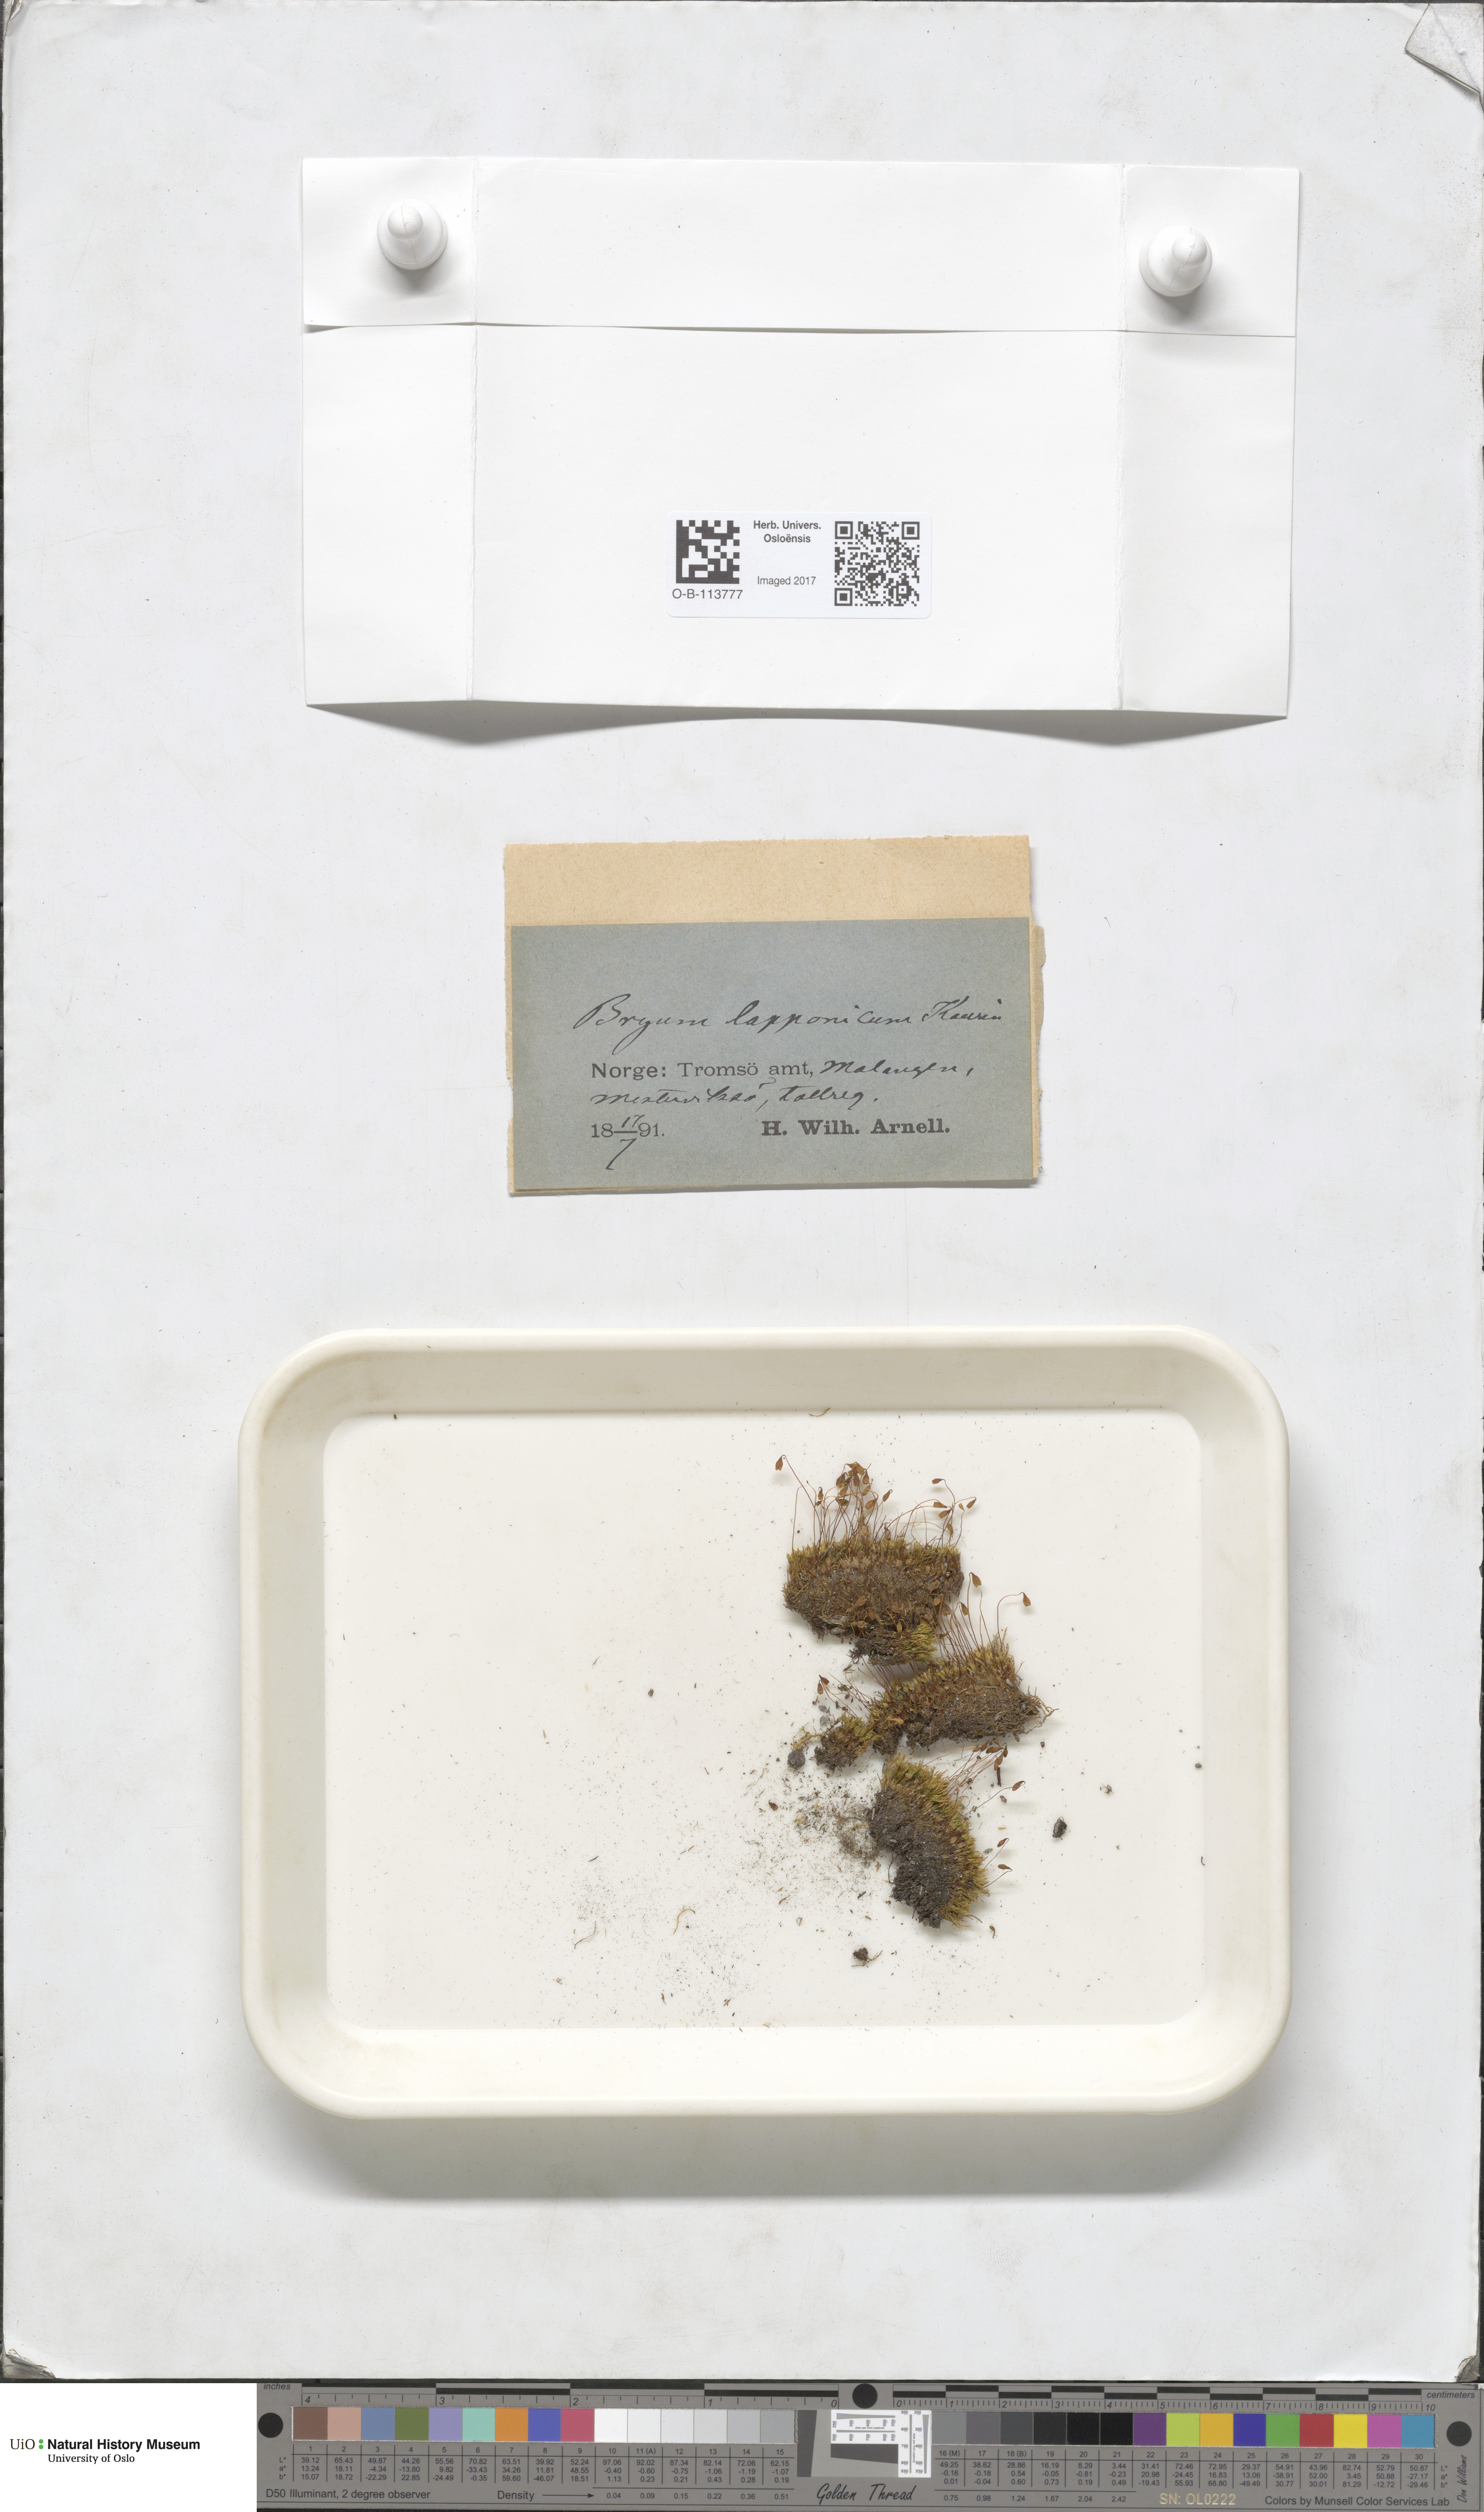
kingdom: Plantae
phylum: Bryophyta
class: Bryopsida
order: Dicranales
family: Amphidiaceae
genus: Amphidium
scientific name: Amphidium lapponicum
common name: Lapland yoke moss
